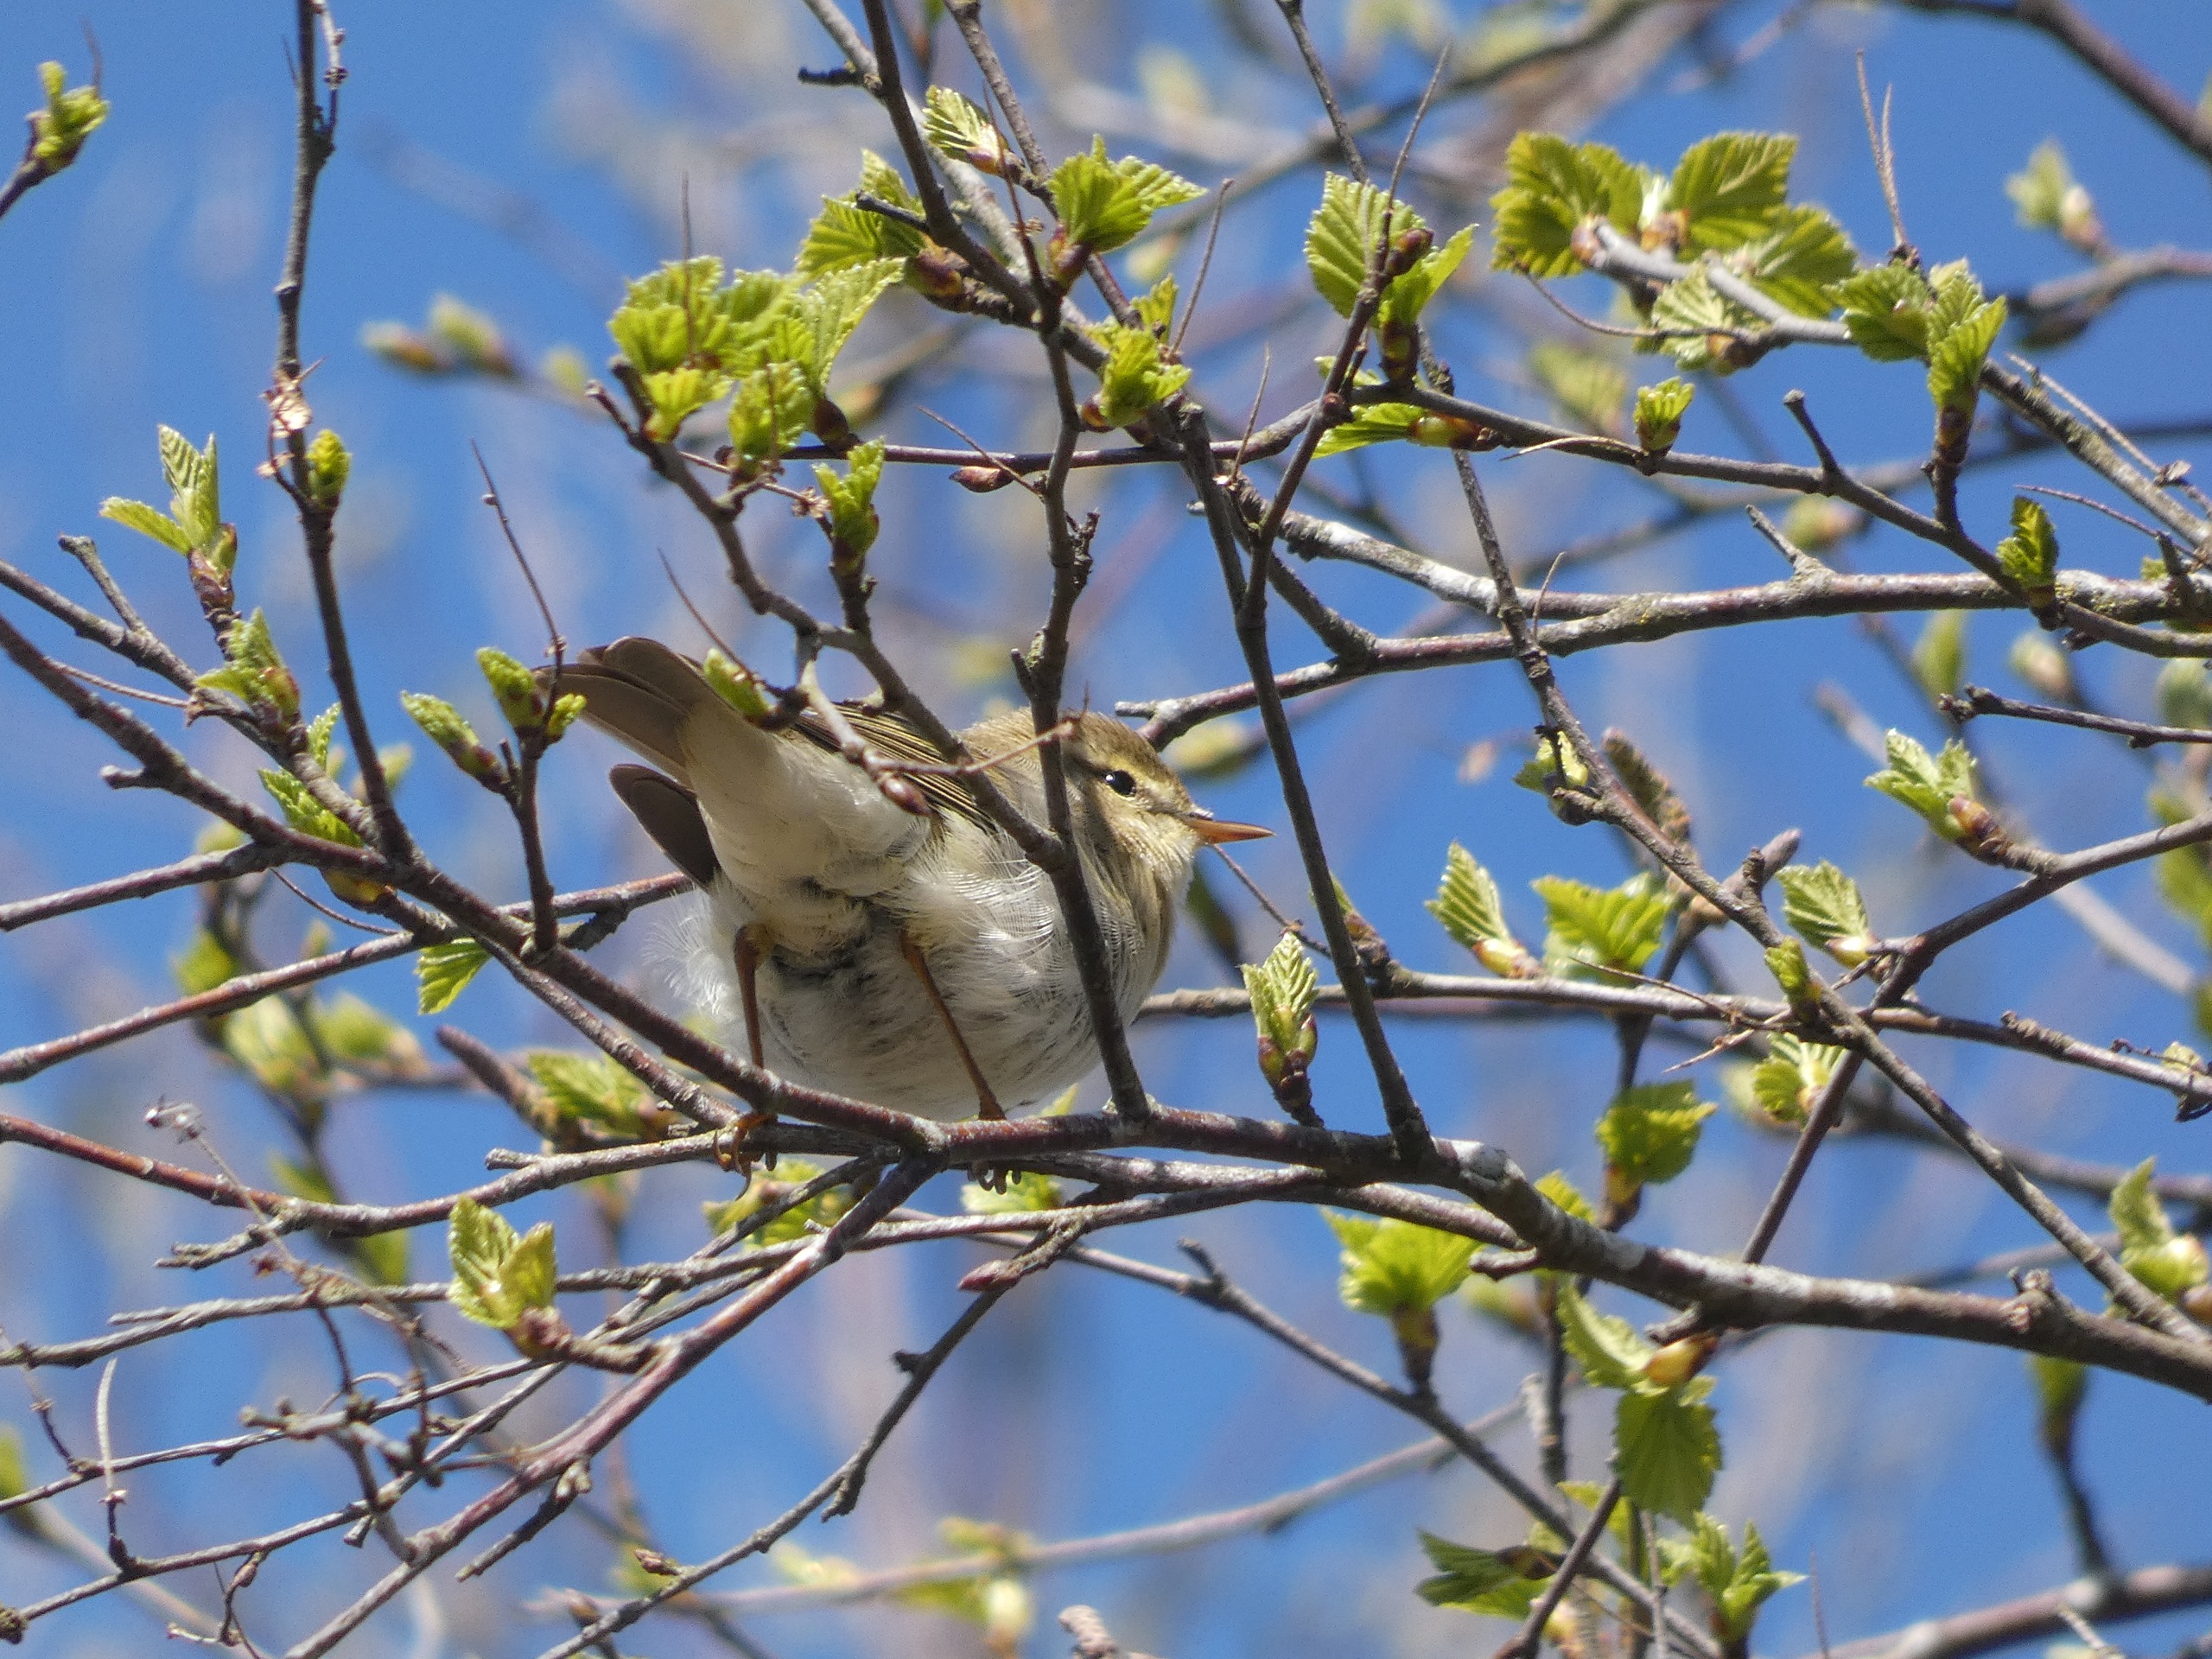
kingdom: Animalia
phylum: Chordata
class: Aves
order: Passeriformes
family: Phylloscopidae
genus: Phylloscopus
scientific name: Phylloscopus trochilus
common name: Løvsanger
